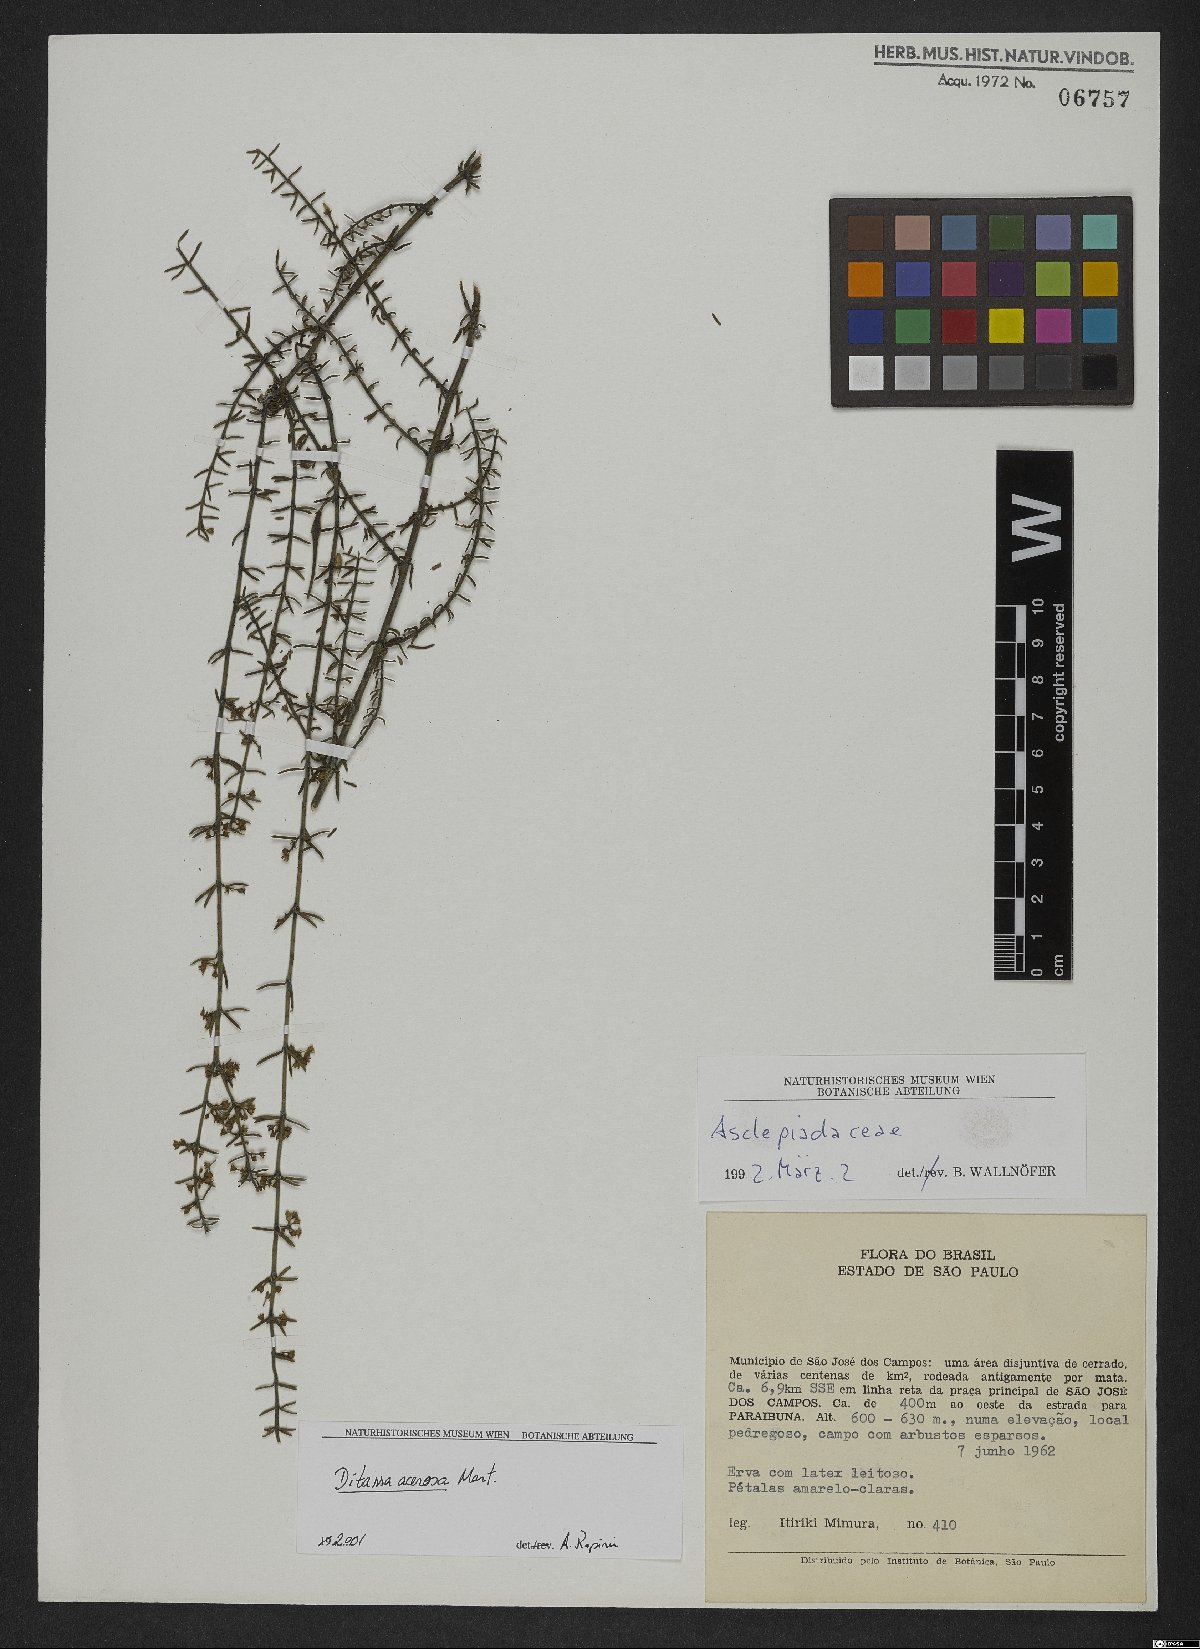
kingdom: Plantae
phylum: Tracheophyta
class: Magnoliopsida
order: Gentianales
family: Apocynaceae
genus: Minaria
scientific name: Minaria acerosa
